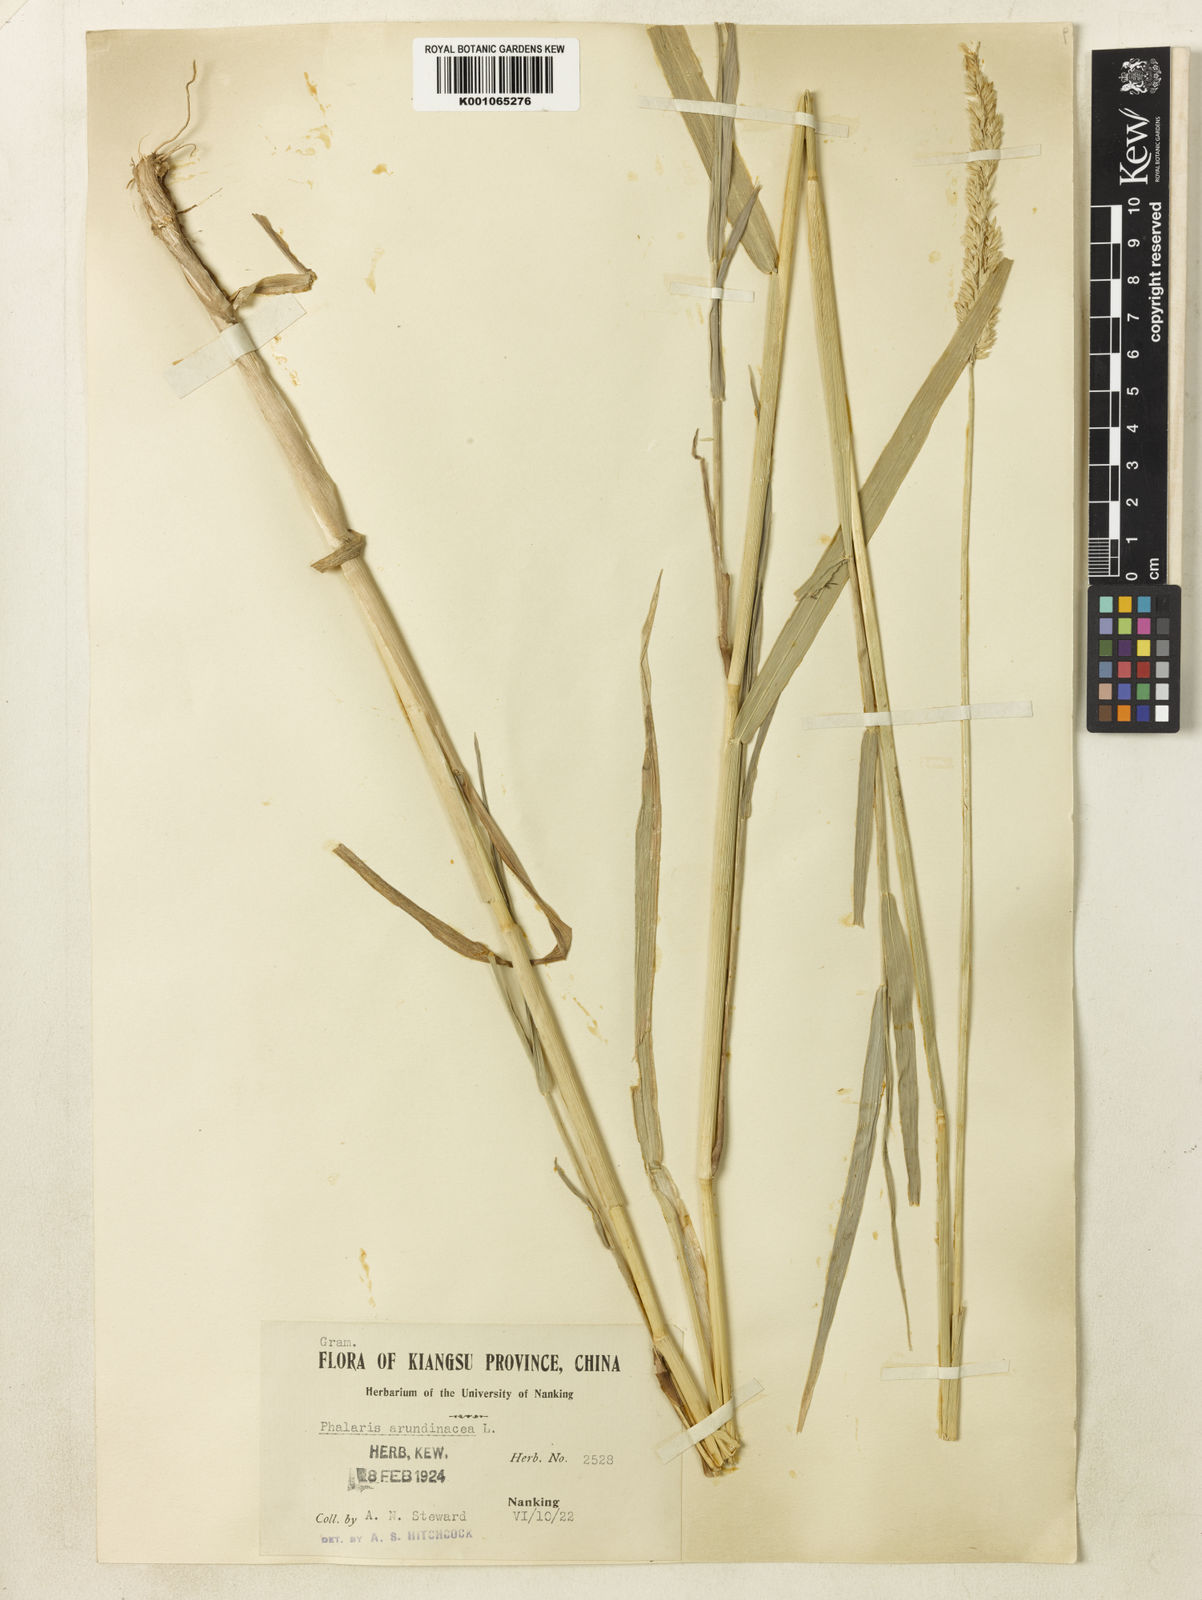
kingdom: Plantae
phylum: Tracheophyta
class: Liliopsida
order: Poales
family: Poaceae
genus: Phalaris
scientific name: Phalaris arundinacea
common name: Reed canary-grass
